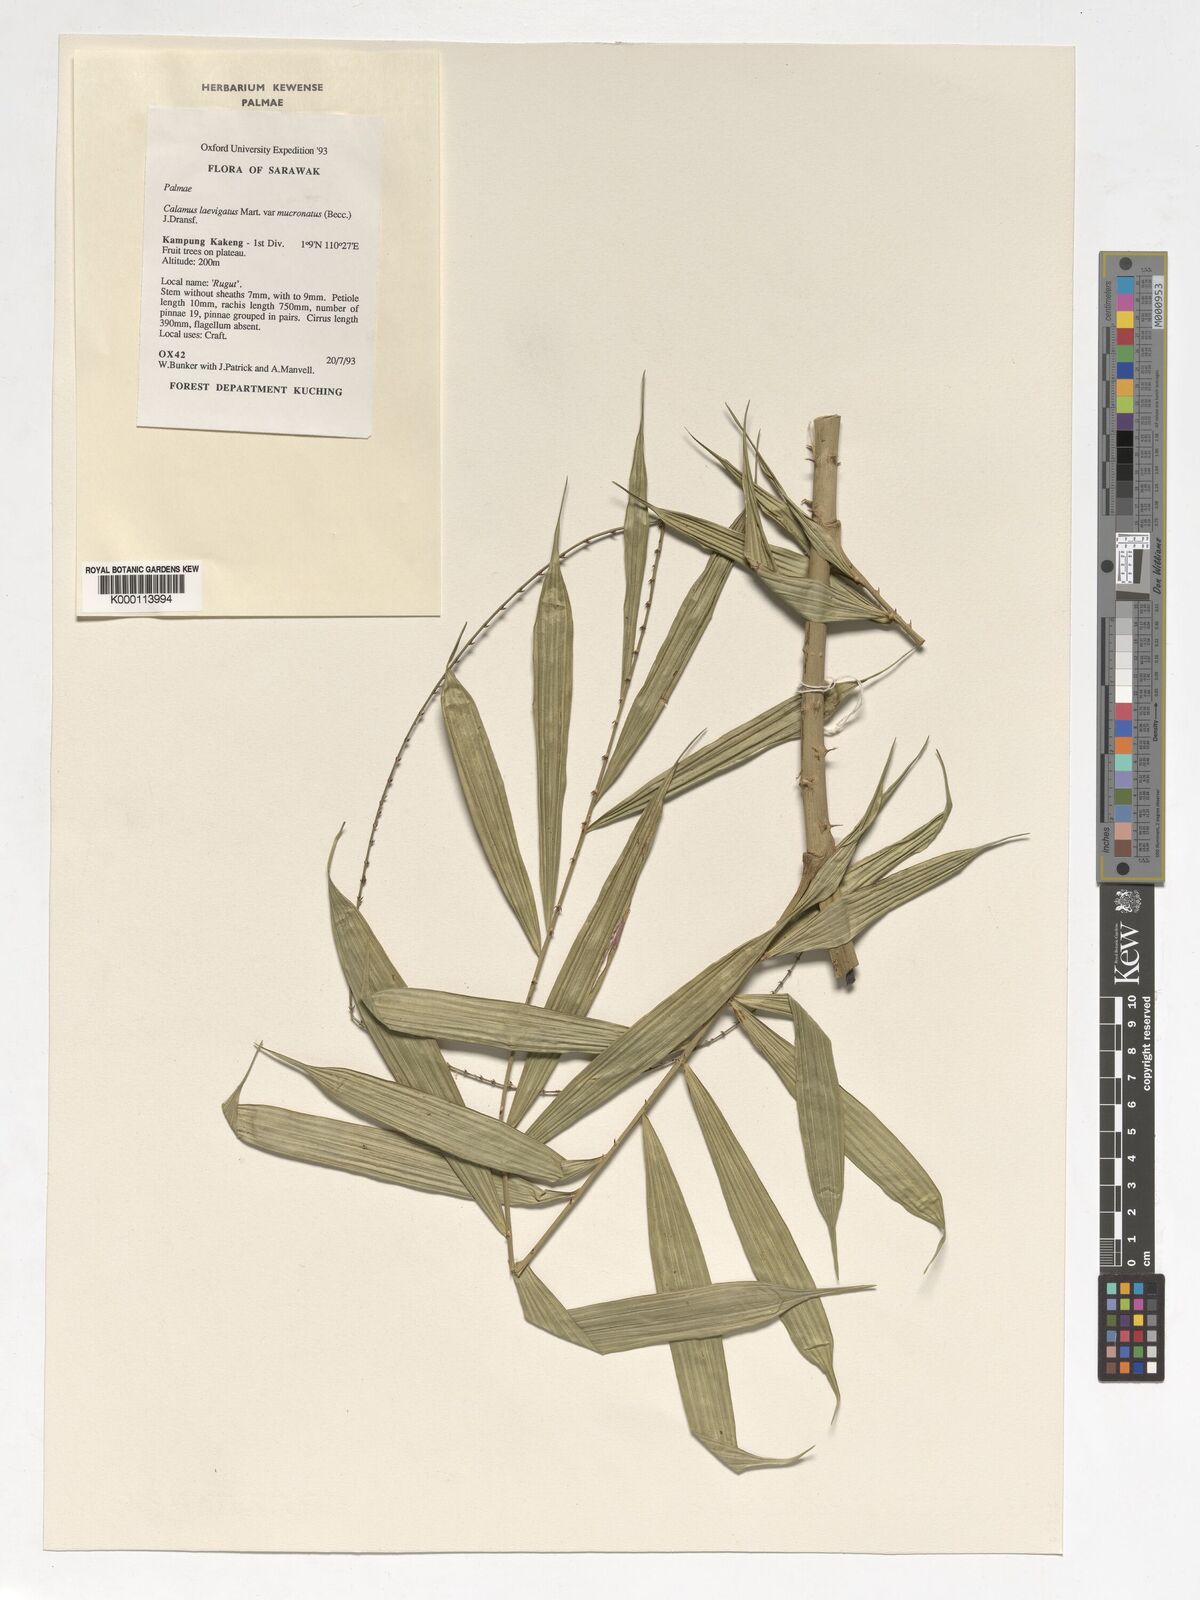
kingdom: Plantae
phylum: Tracheophyta
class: Liliopsida
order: Arecales
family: Arecaceae
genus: Calamus
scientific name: Calamus plicatus
